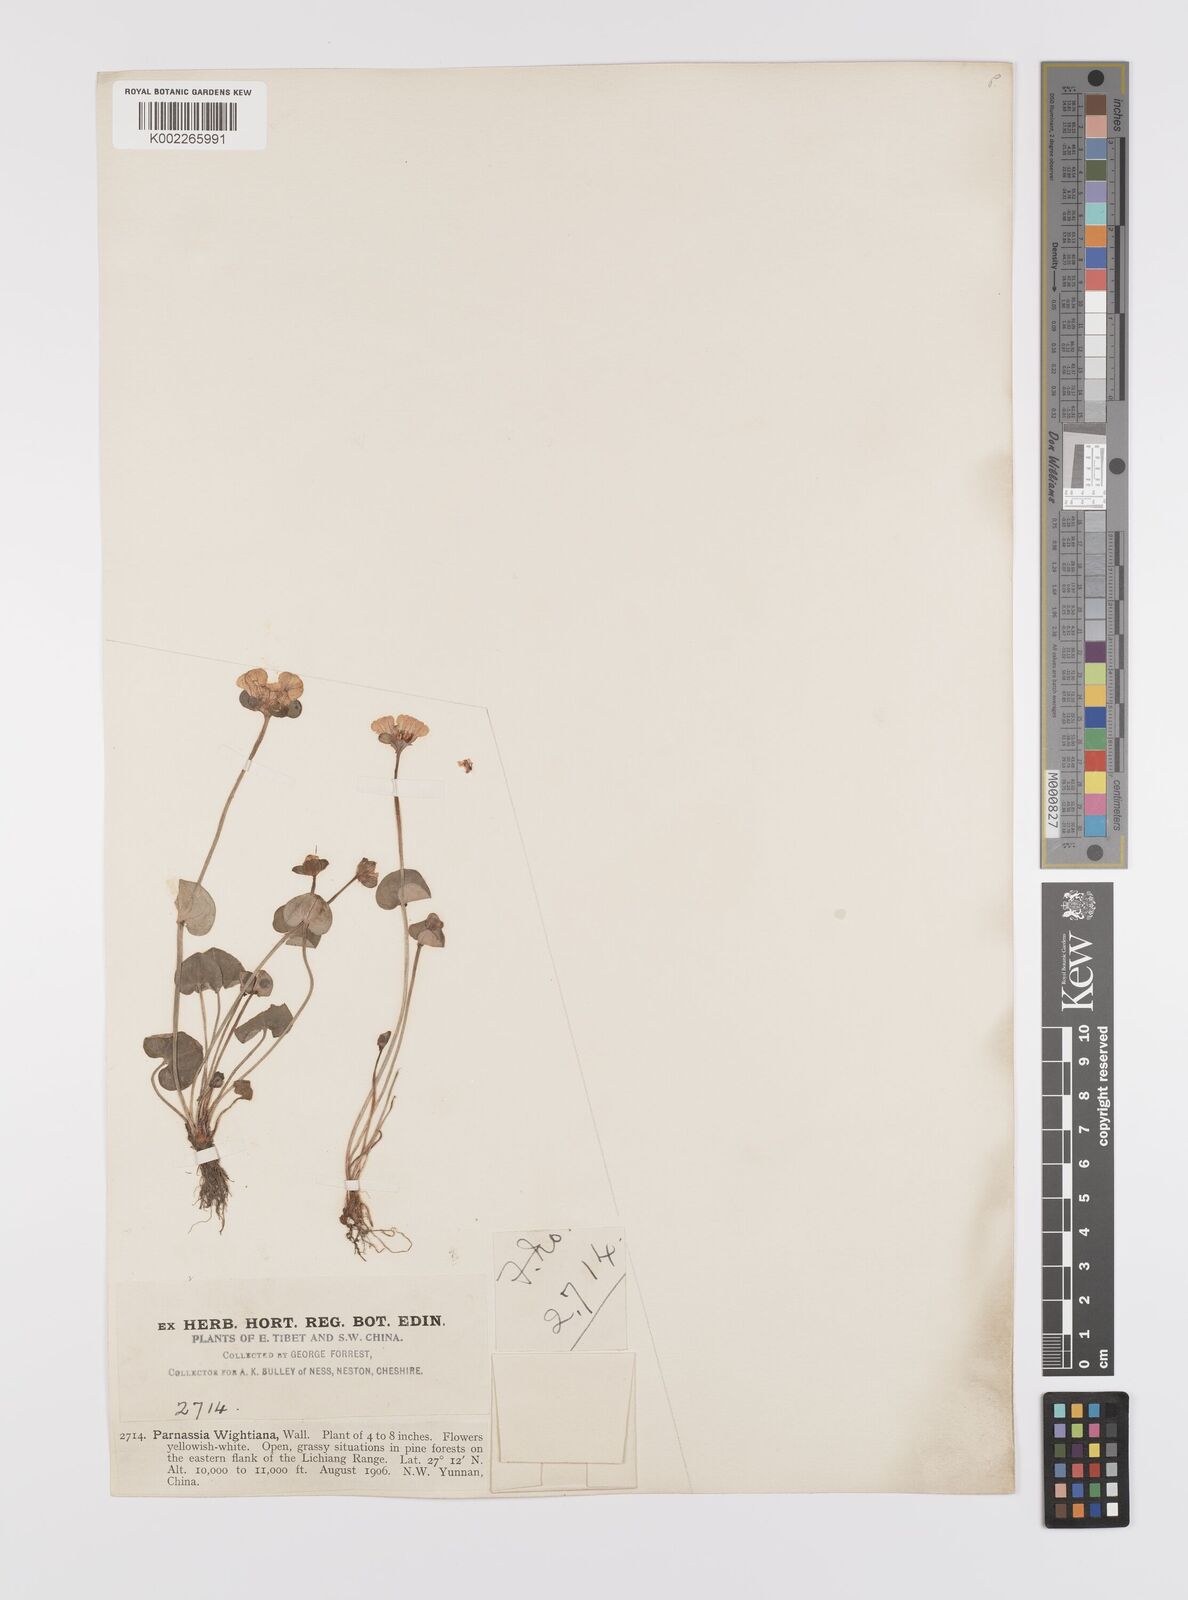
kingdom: Plantae
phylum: Tracheophyta
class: Magnoliopsida
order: Celastrales
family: Parnassiaceae
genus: Parnassia
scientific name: Parnassia wightiana
